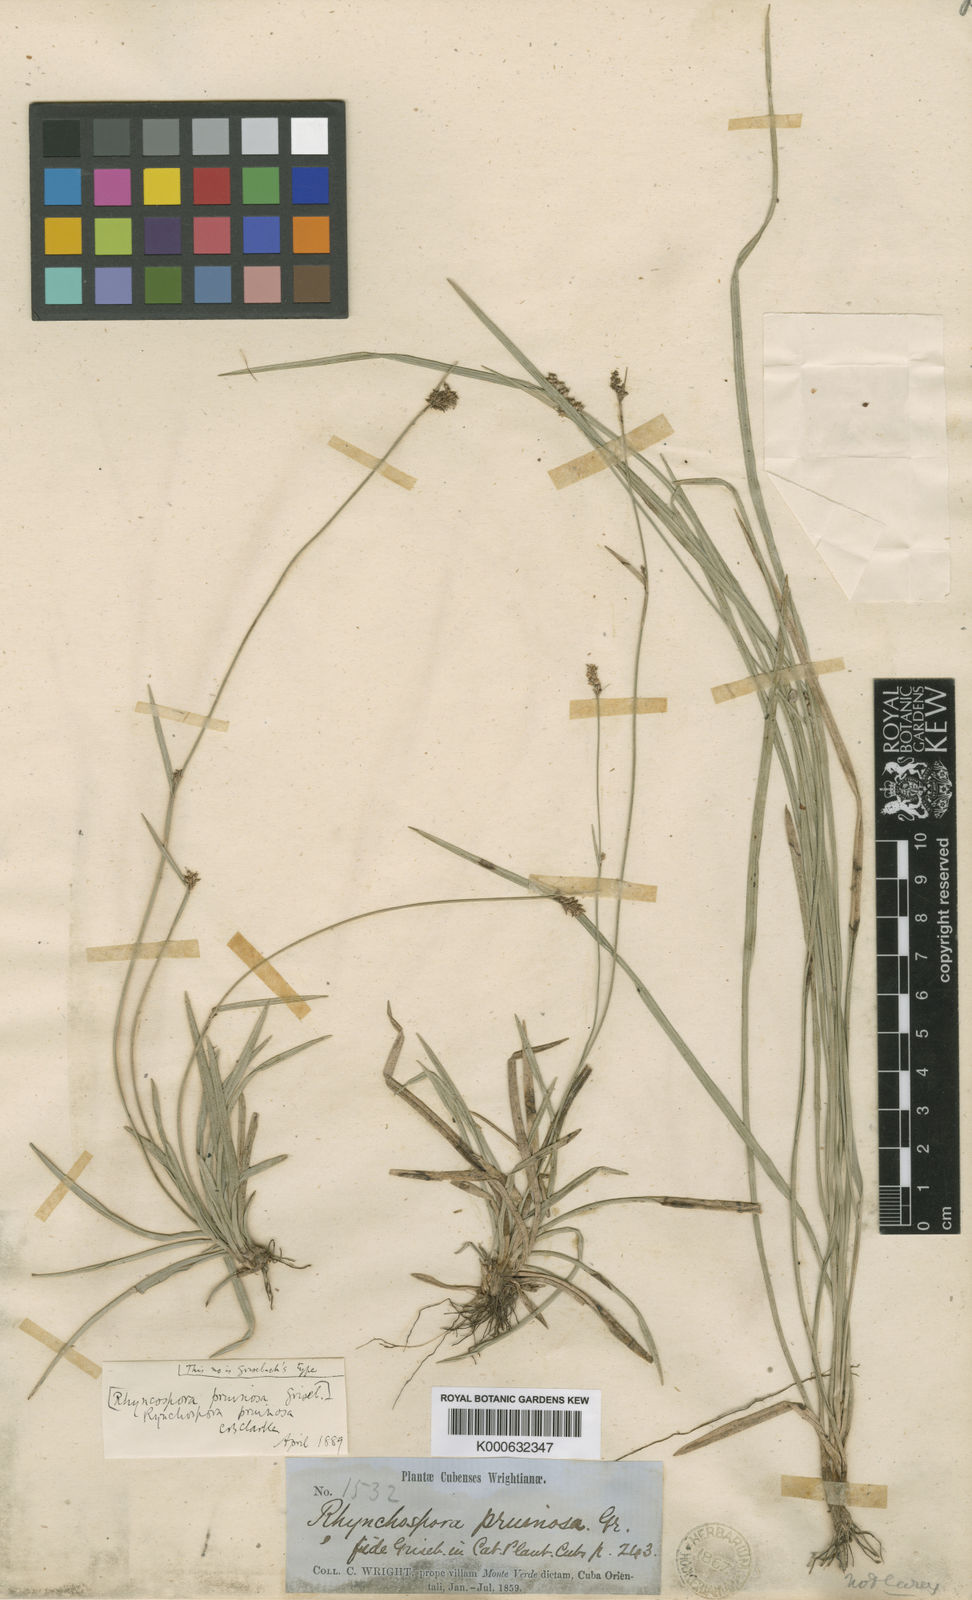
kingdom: Plantae
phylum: Tracheophyta
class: Liliopsida
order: Poales
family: Cyperaceae
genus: Rhynchospora
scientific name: Rhynchospora pruinosa
